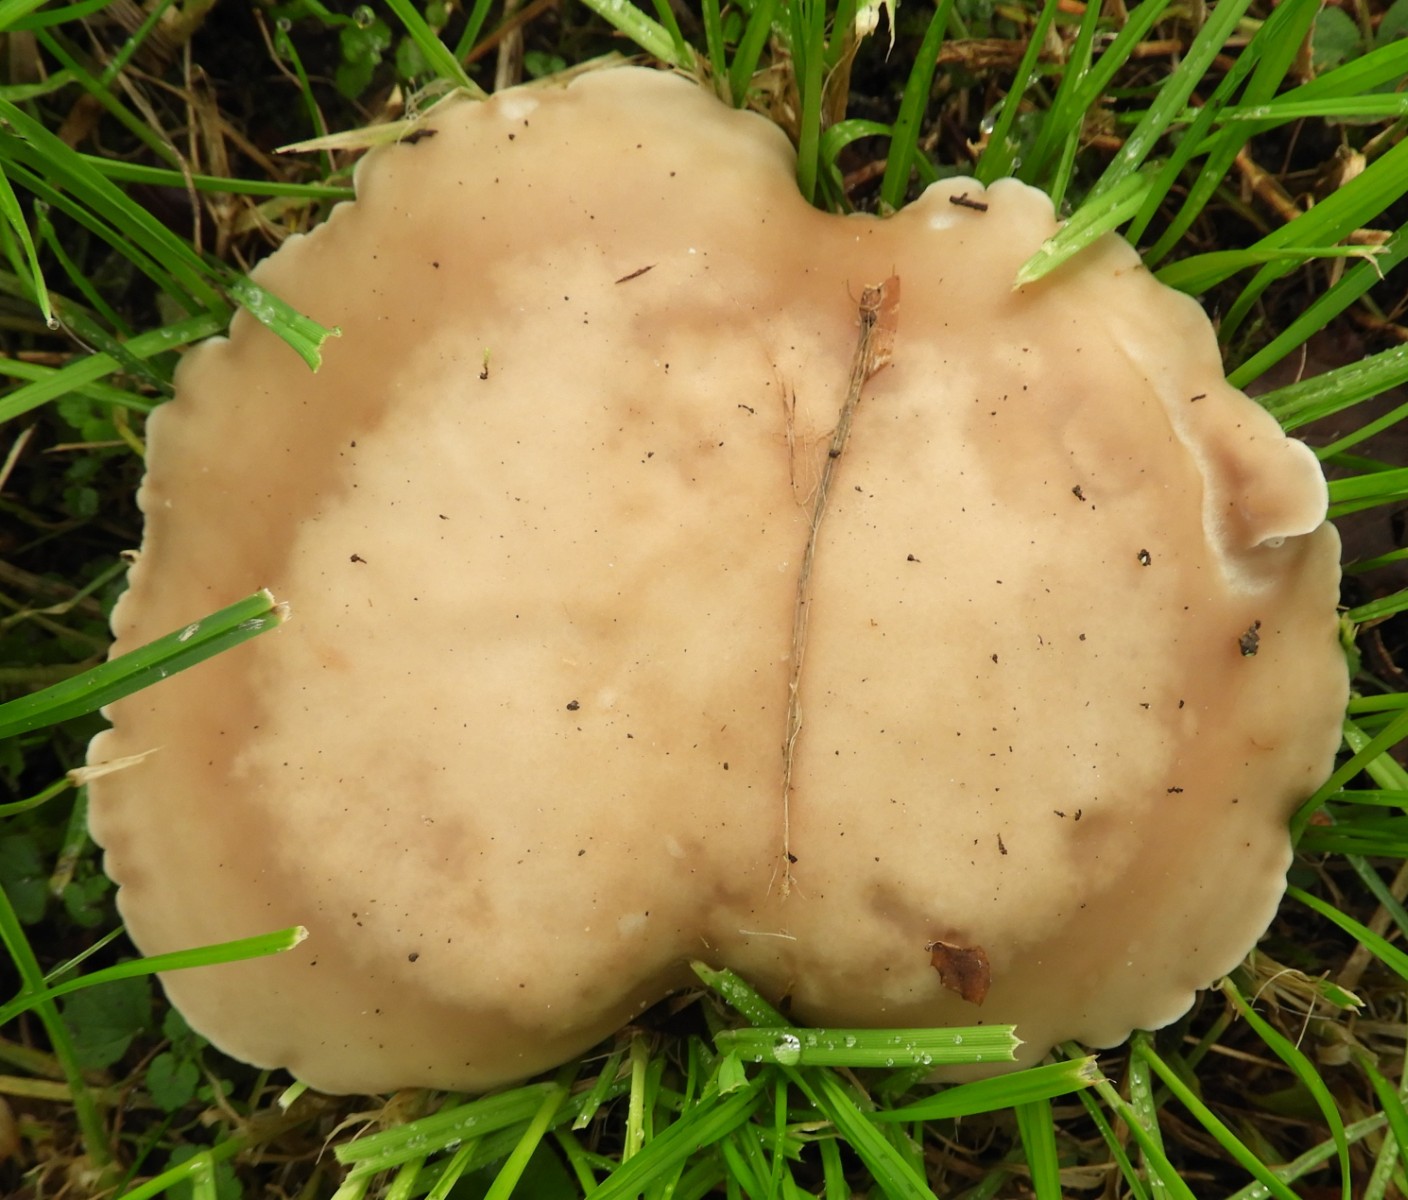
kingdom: Fungi
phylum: Basidiomycota
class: Agaricomycetes
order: Agaricales
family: Tricholomataceae
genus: Lepista
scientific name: Lepista personata
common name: bleg hekseringshat
